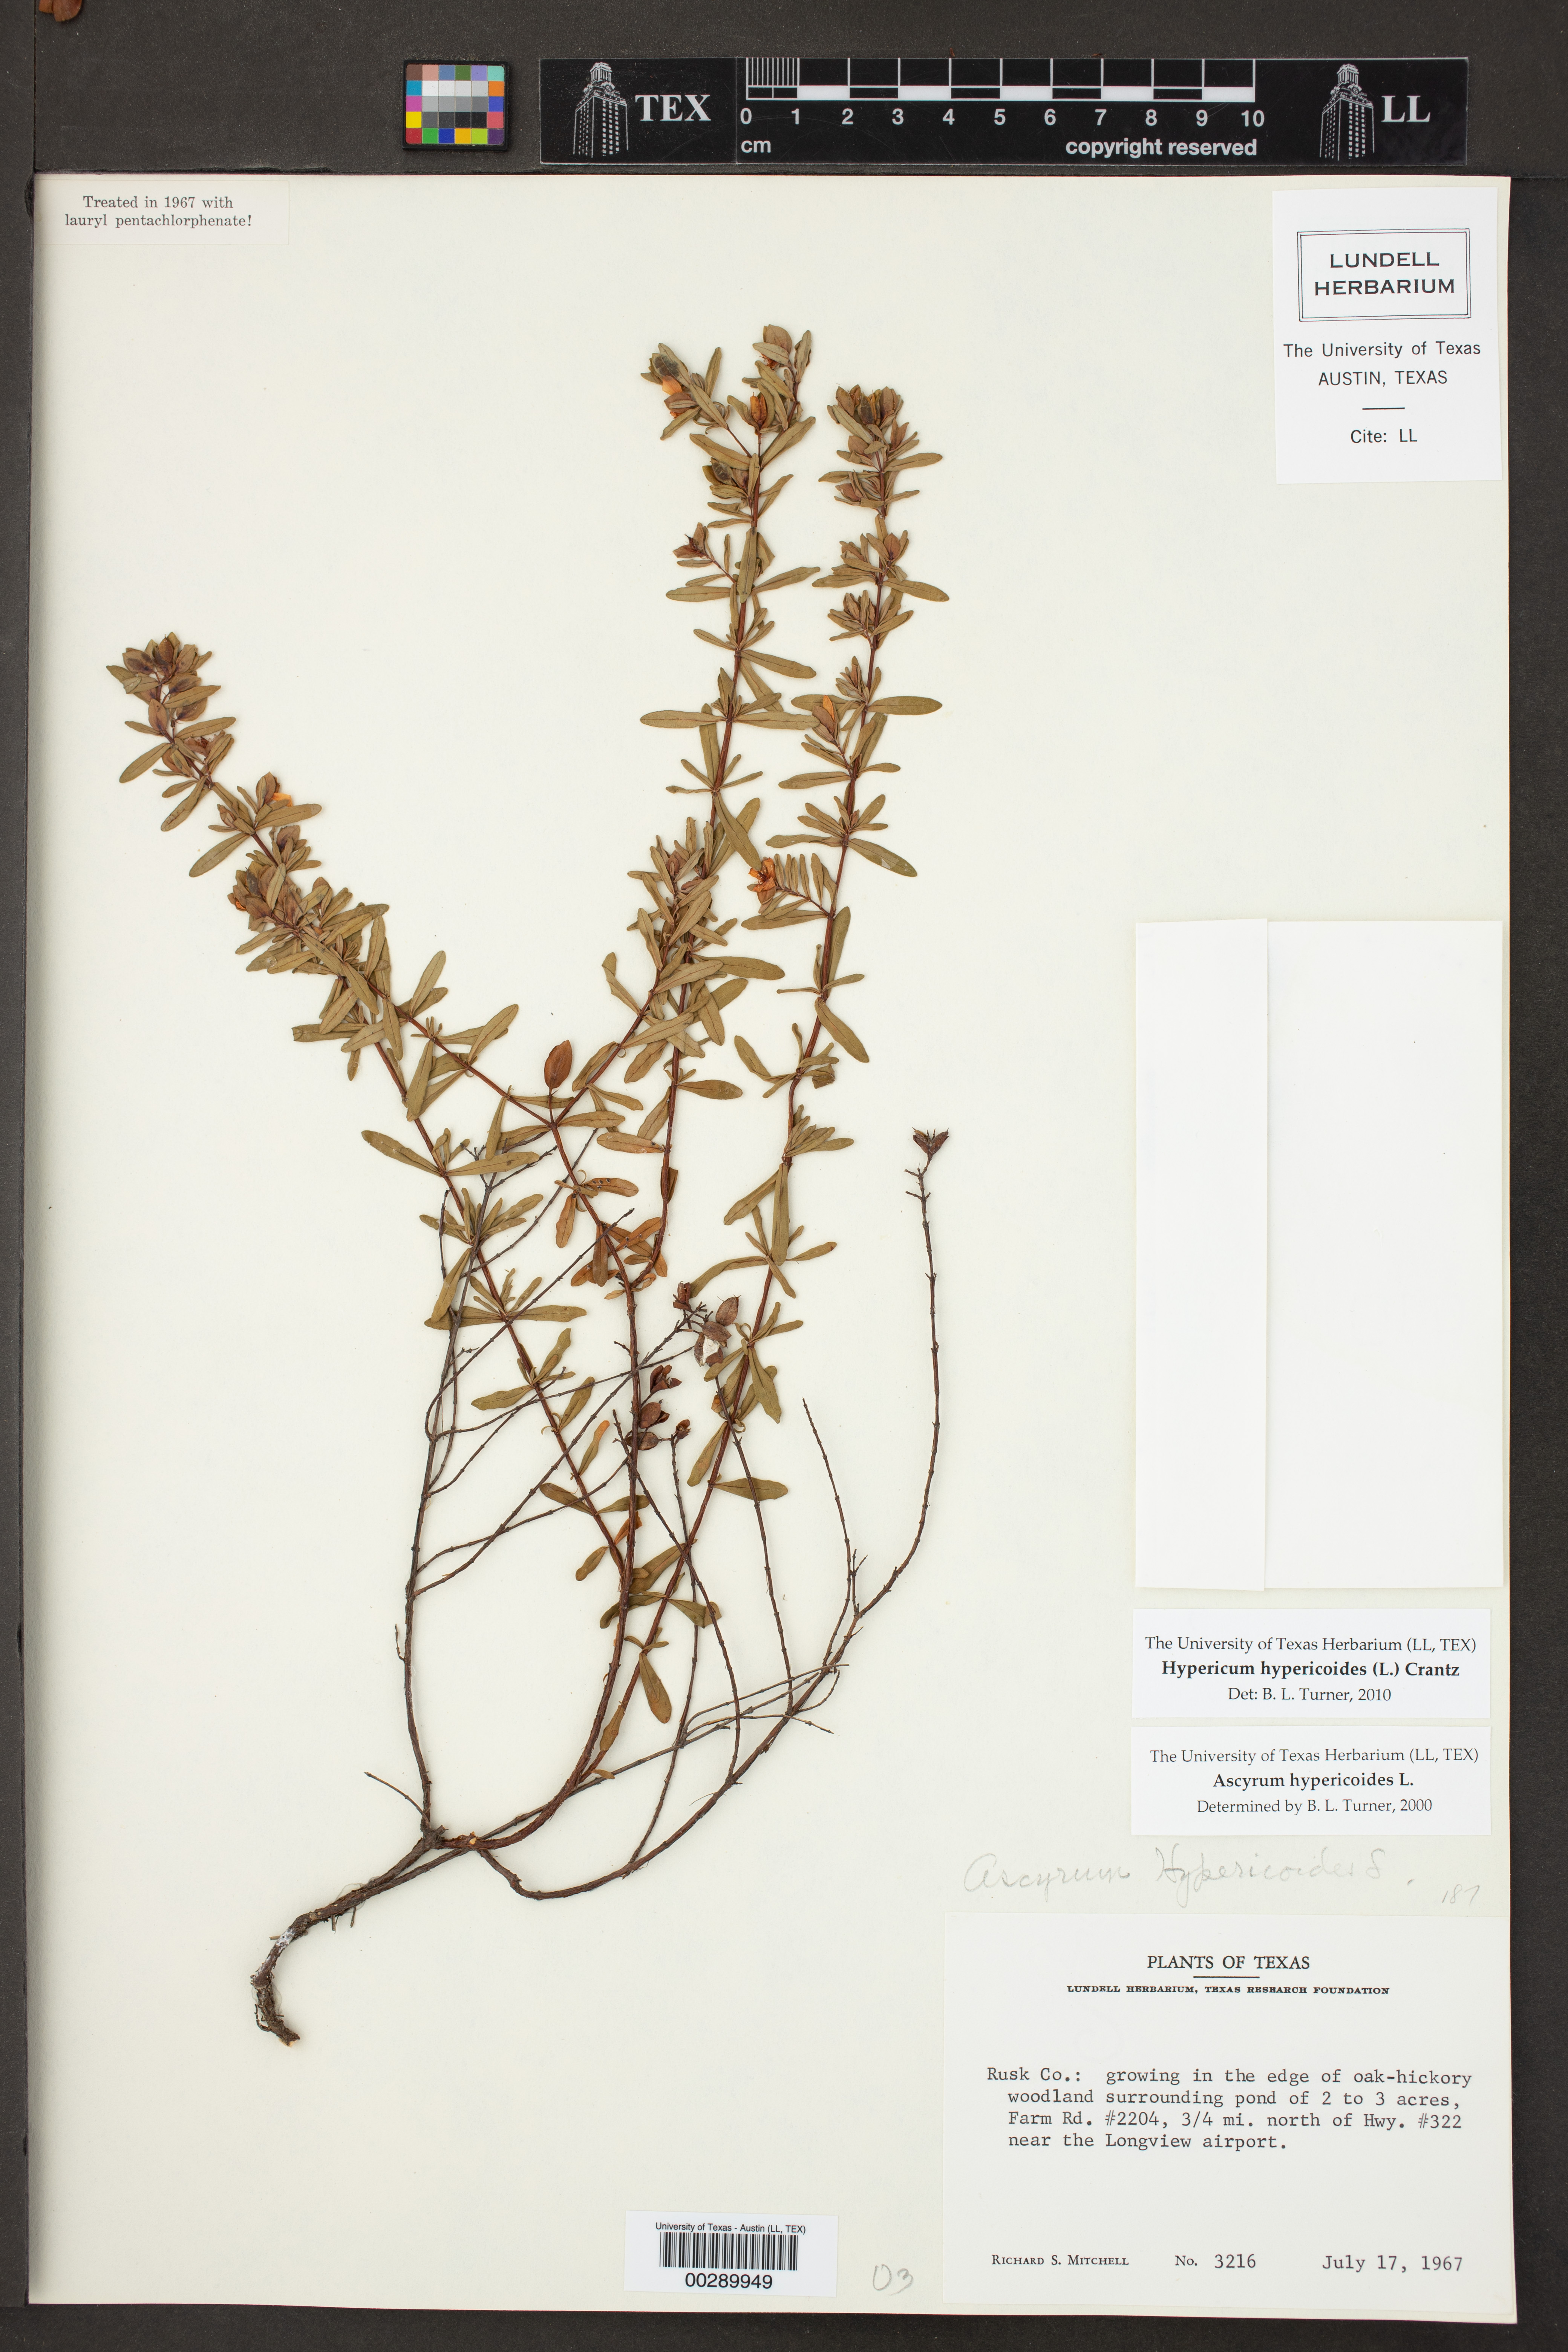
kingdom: Plantae
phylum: Tracheophyta
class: Magnoliopsida
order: Malpighiales
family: Hypericaceae
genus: Hypericum
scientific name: Hypericum hypericoides
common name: St. andrew's cross
